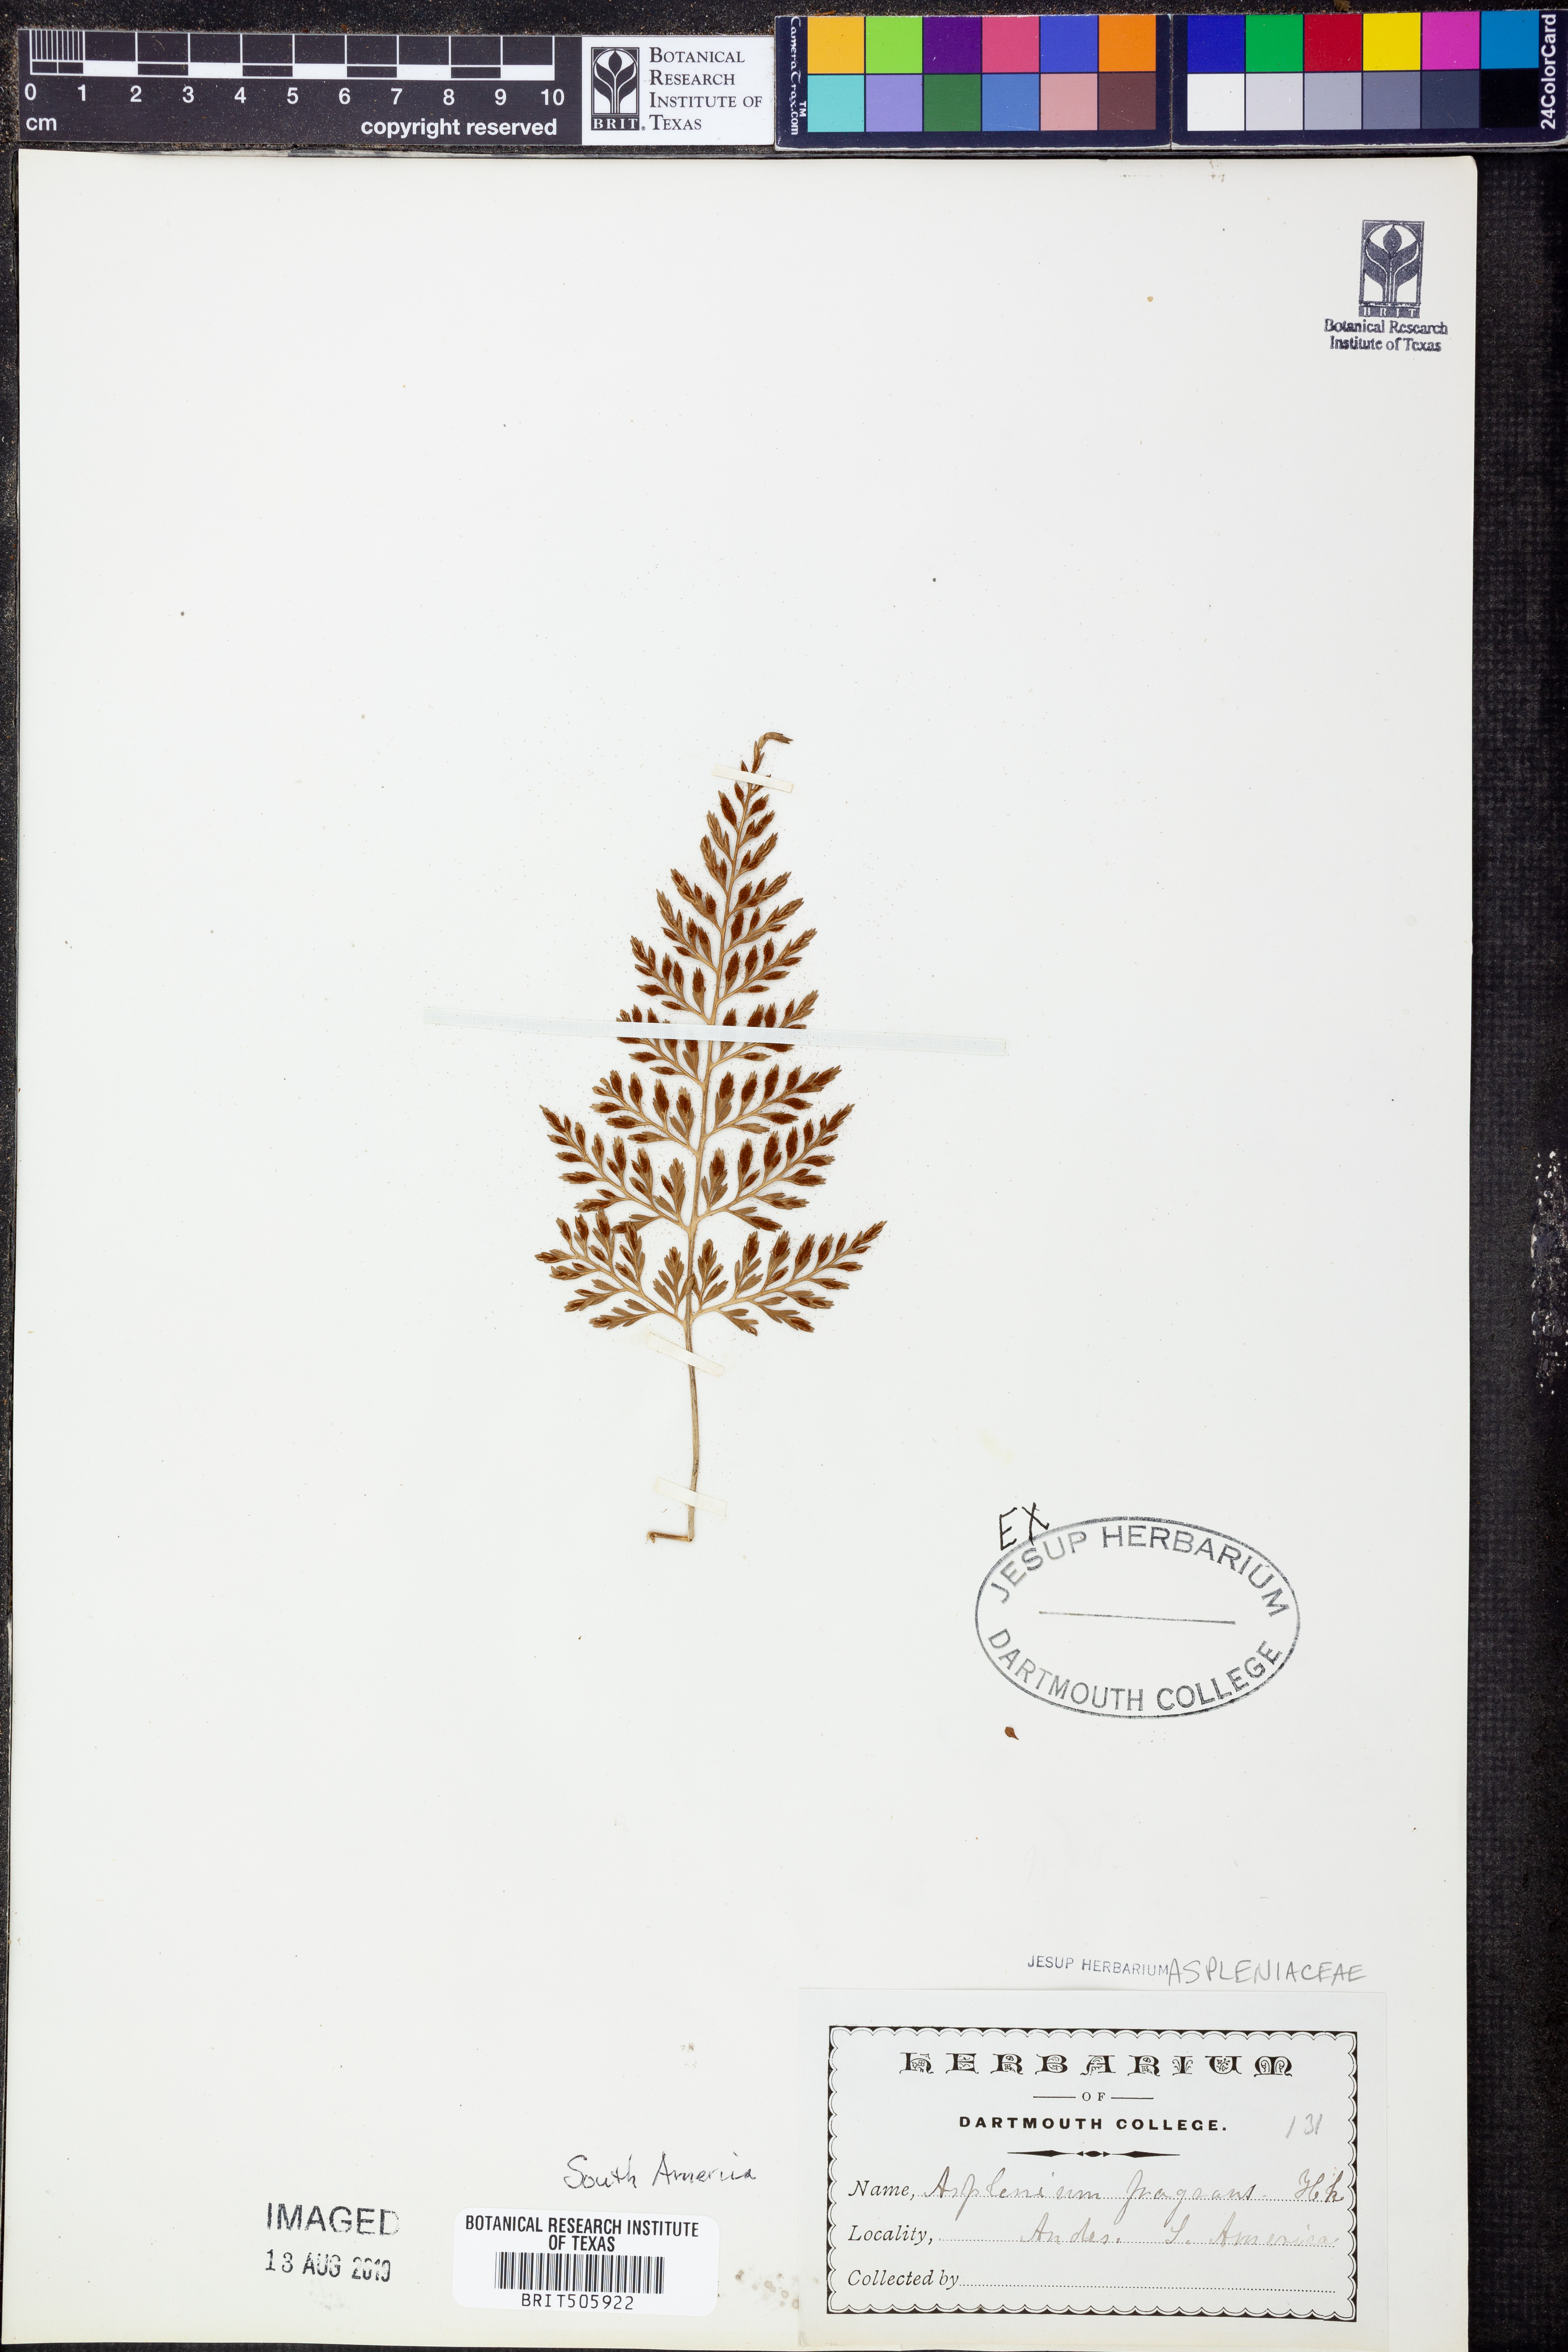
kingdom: Plantae
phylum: Tracheophyta
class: Polypodiopsida
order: Polypodiales
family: Aspleniaceae
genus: Asplenium
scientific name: Asplenium hastatum
